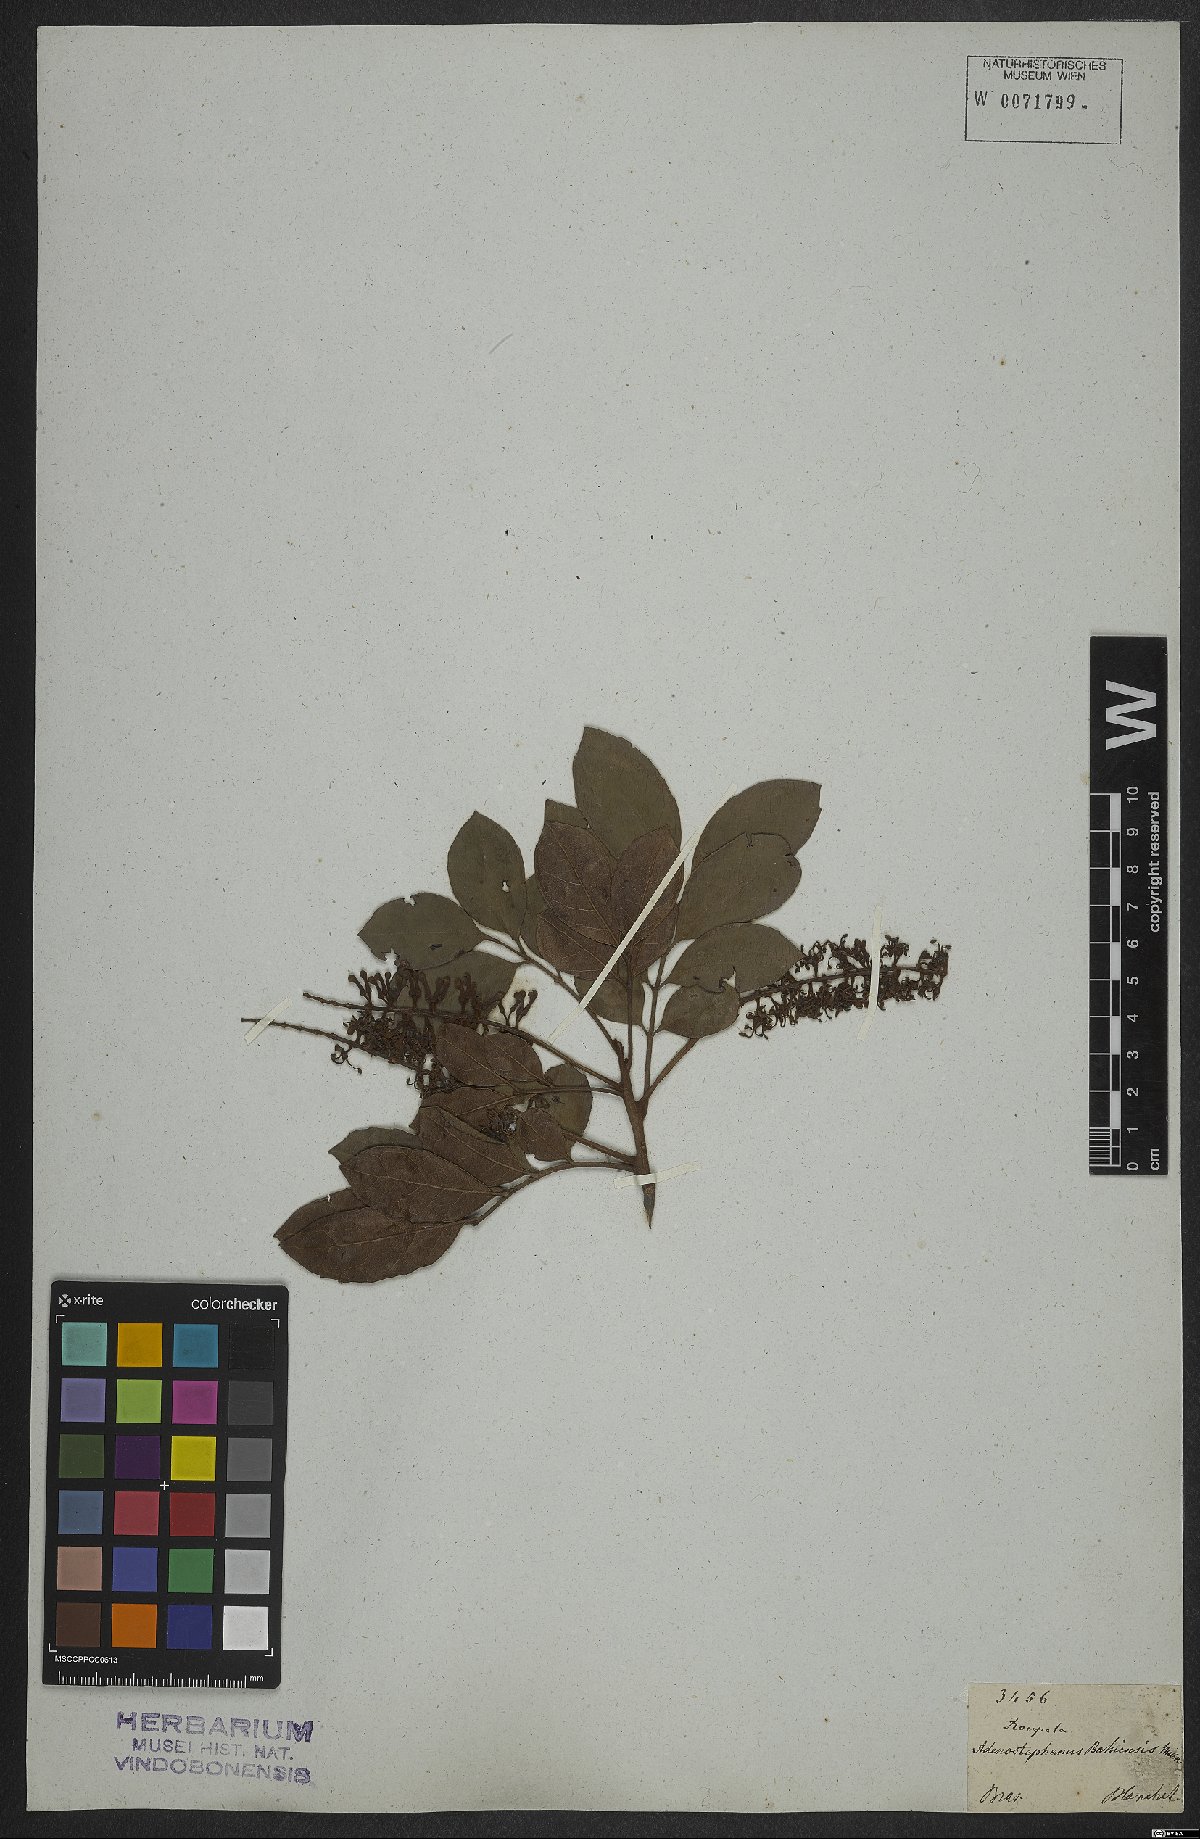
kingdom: Plantae
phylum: Tracheophyta
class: Magnoliopsida
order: Proteales
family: Proteaceae
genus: Euplassa
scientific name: Euplassa bahiensis
